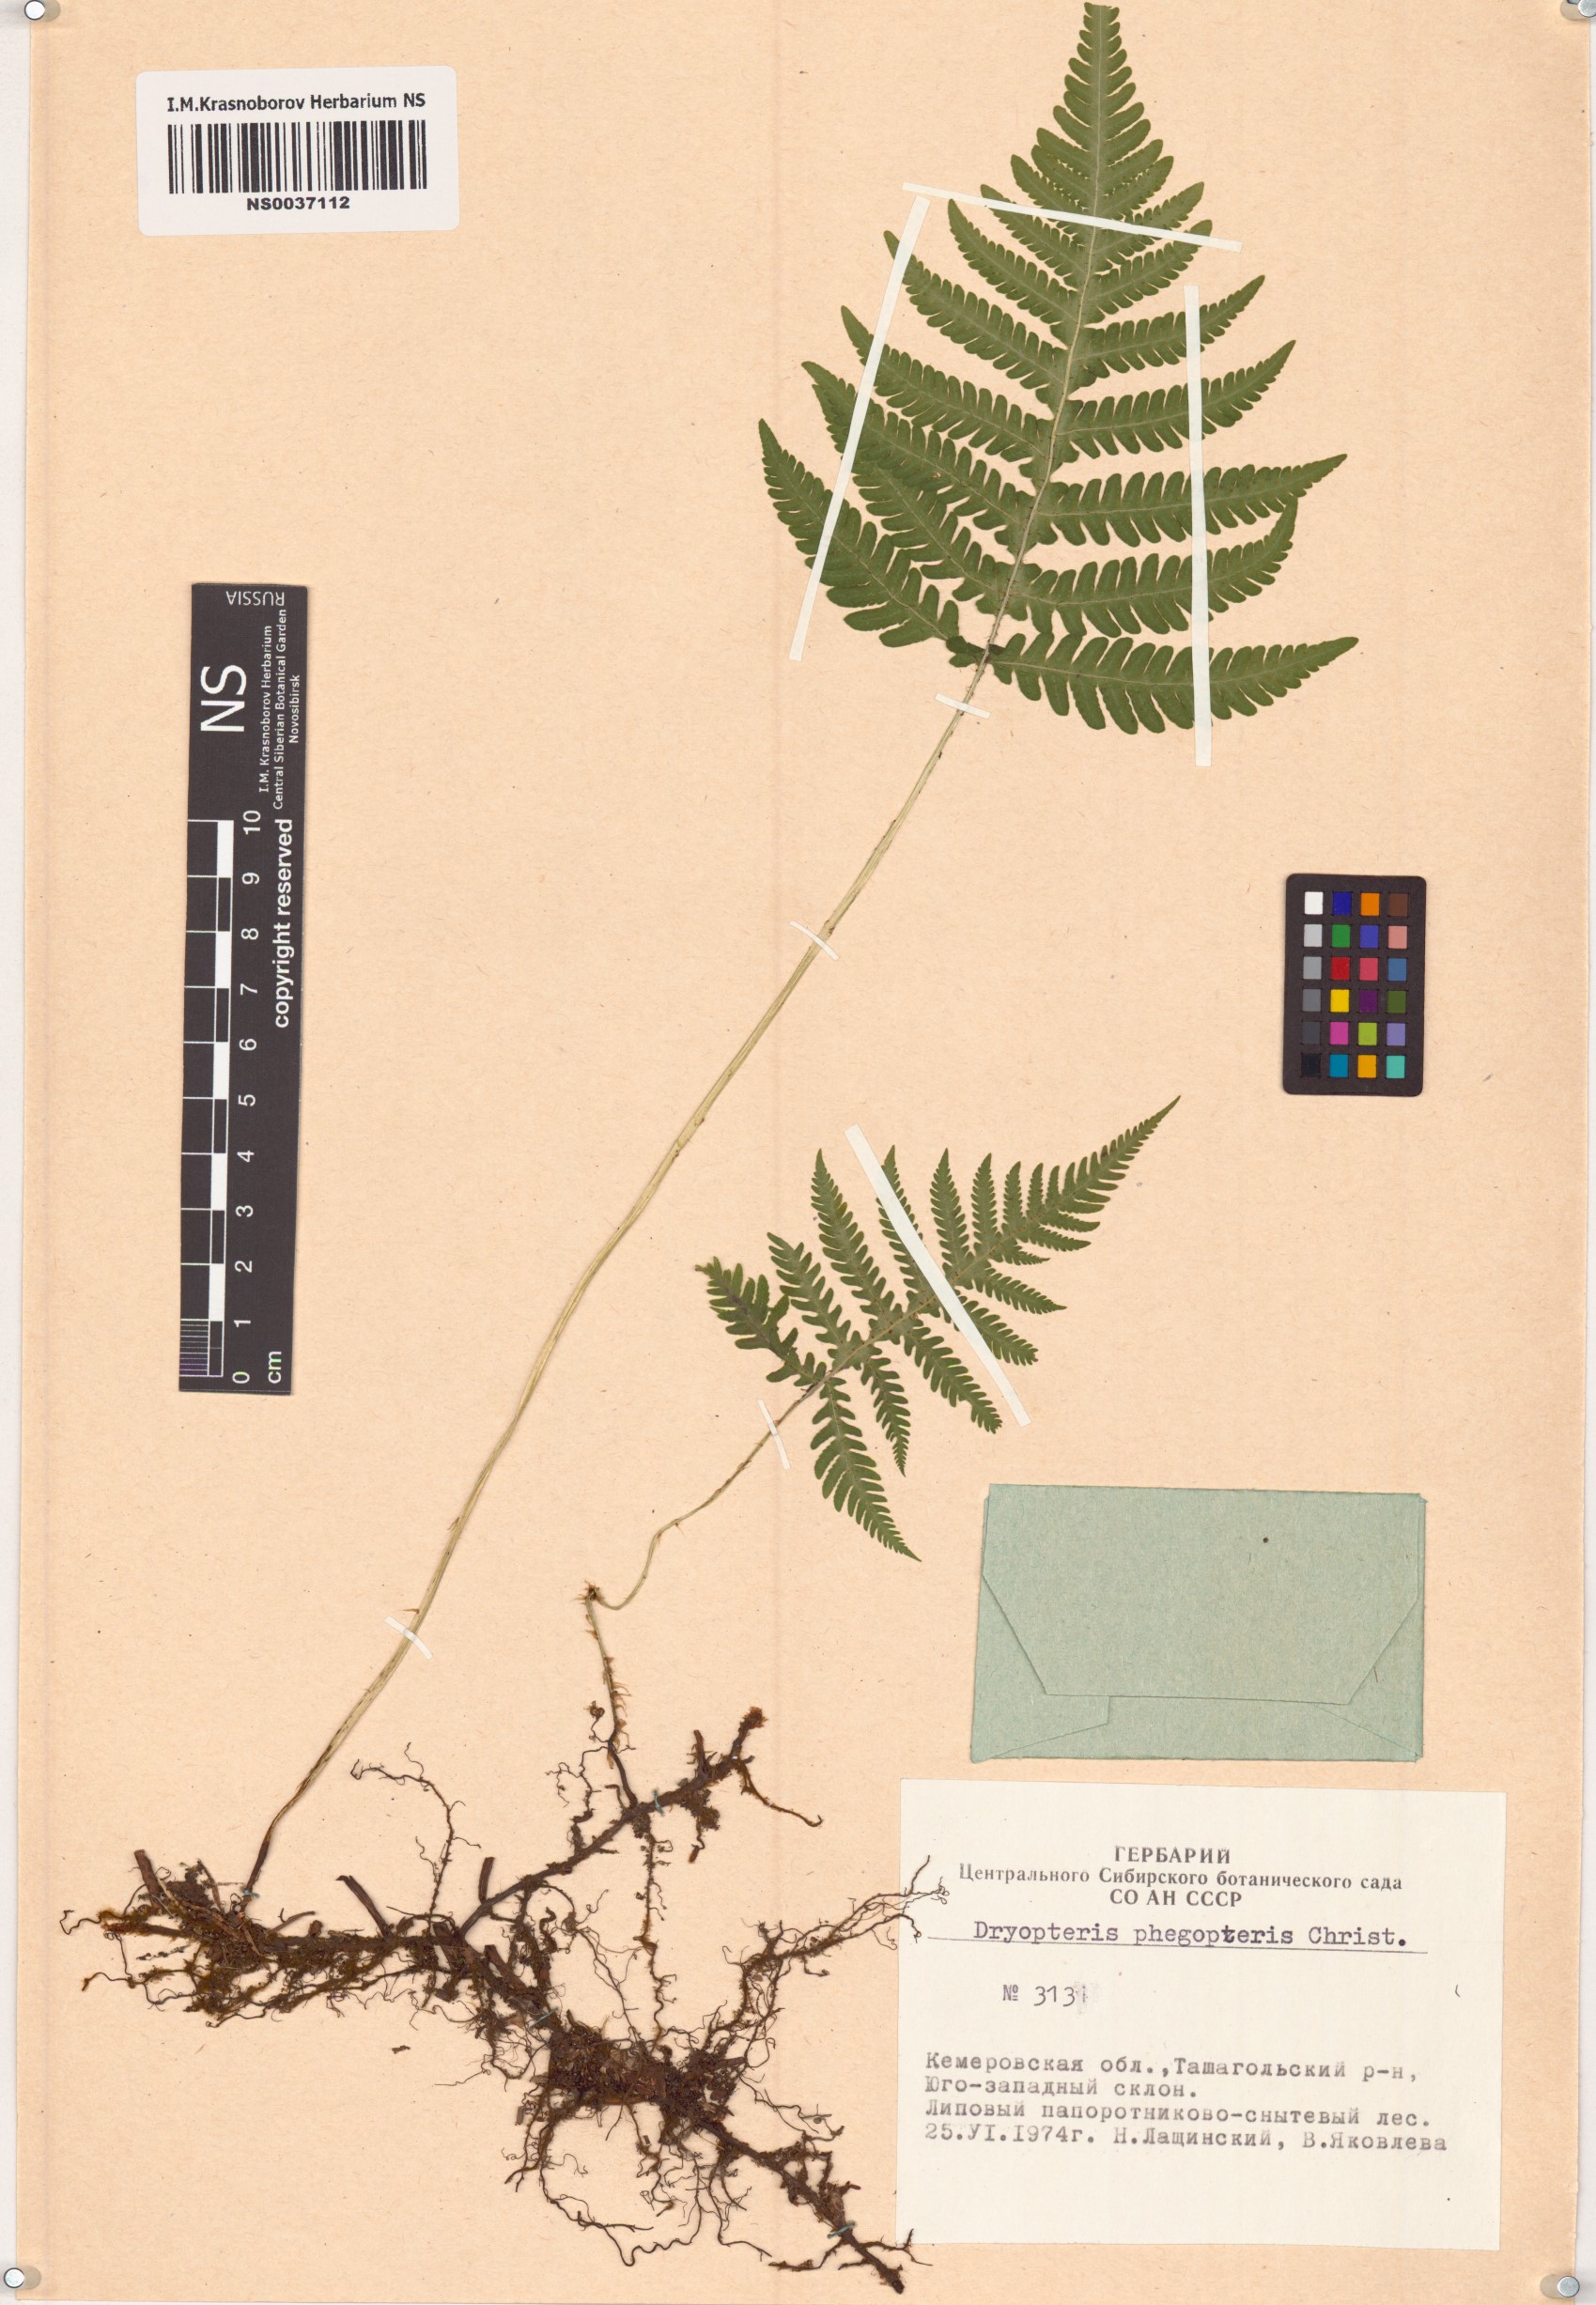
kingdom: Plantae
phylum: Tracheophyta
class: Polypodiopsida
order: Polypodiales
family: Thelypteridaceae
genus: Phegopteris
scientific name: Phegopteris connectilis
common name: Beech fern
